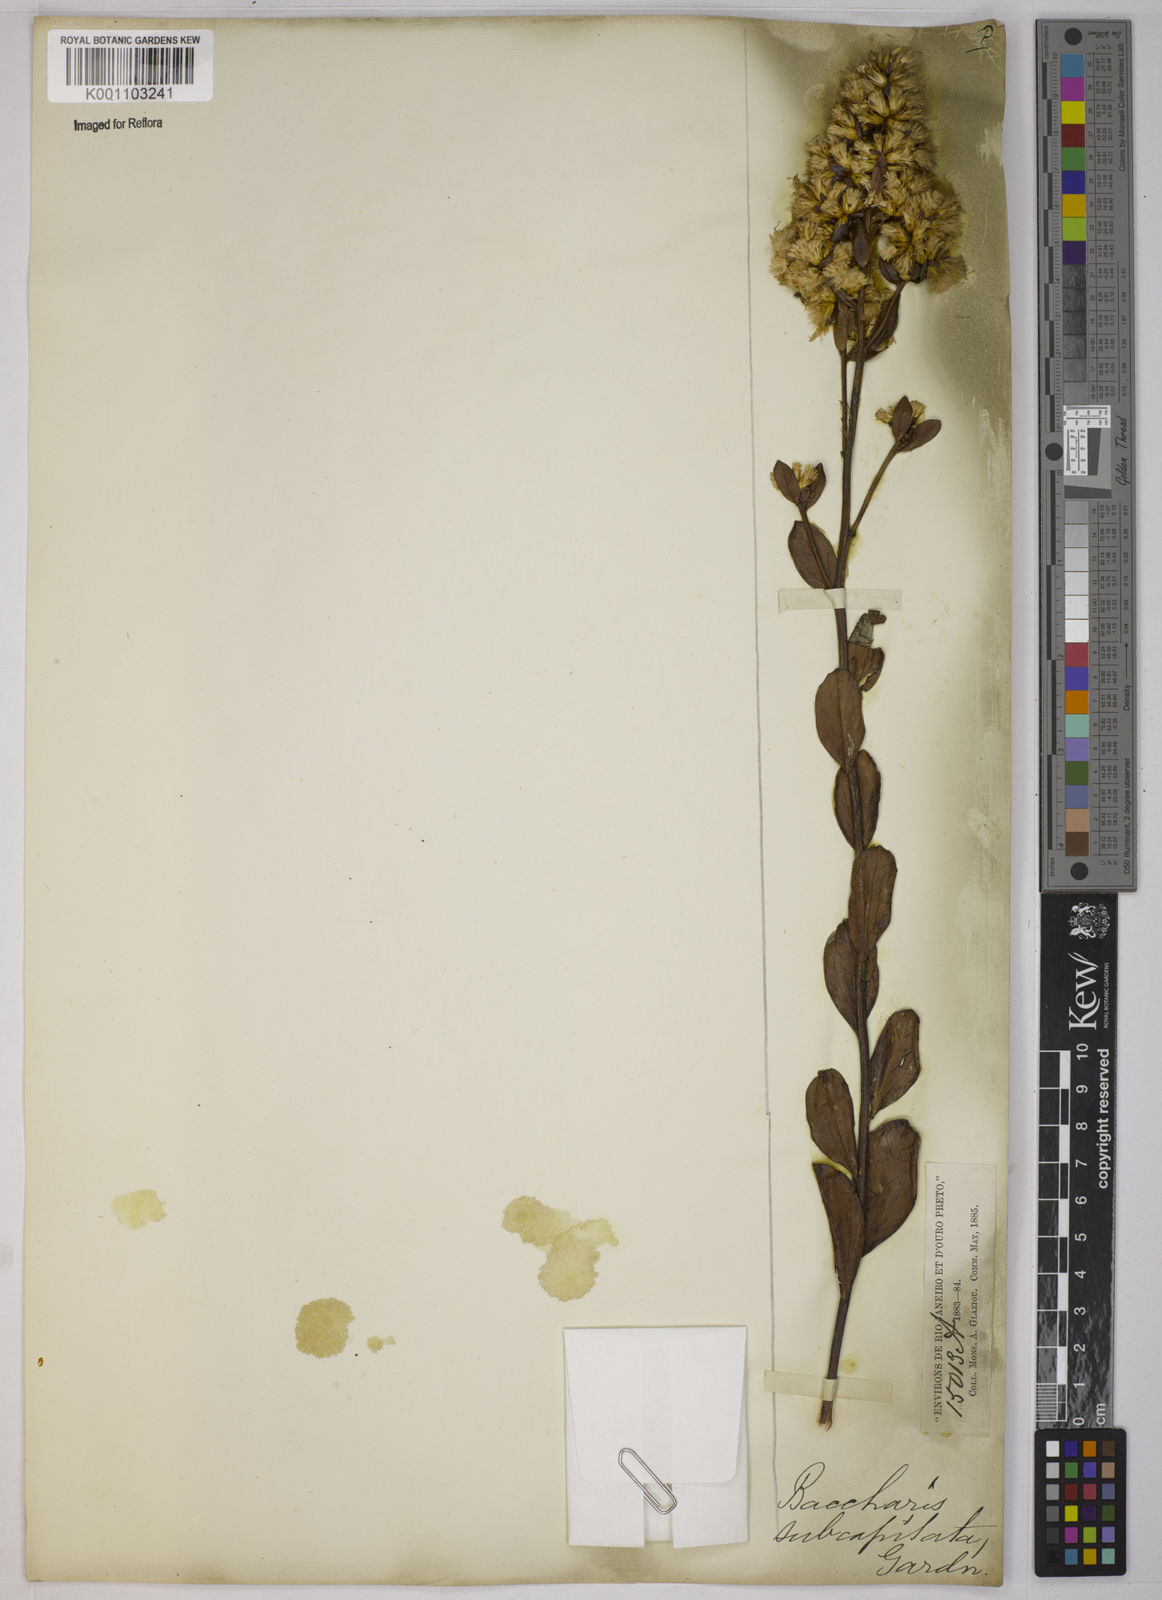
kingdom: Plantae
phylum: Tracheophyta
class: Magnoliopsida
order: Asterales
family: Asteraceae
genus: Baccharis
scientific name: Baccharis subdentata
